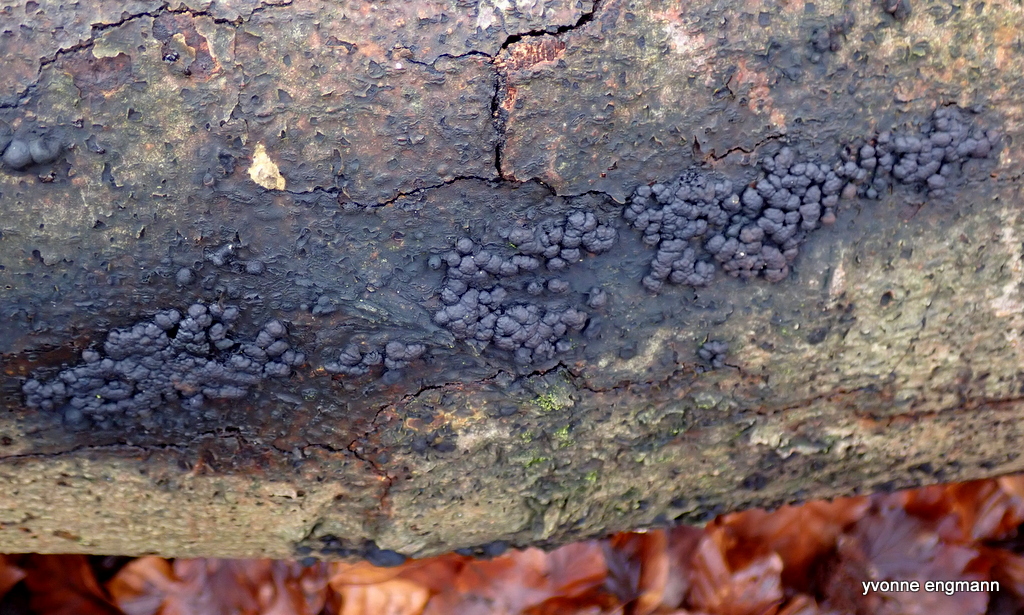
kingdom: Fungi
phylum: Ascomycota
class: Sordariomycetes
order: Xylariales
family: Hypoxylaceae
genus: Jackrogersella
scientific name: Jackrogersella cohaerens
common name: sammenflydende kulbær
